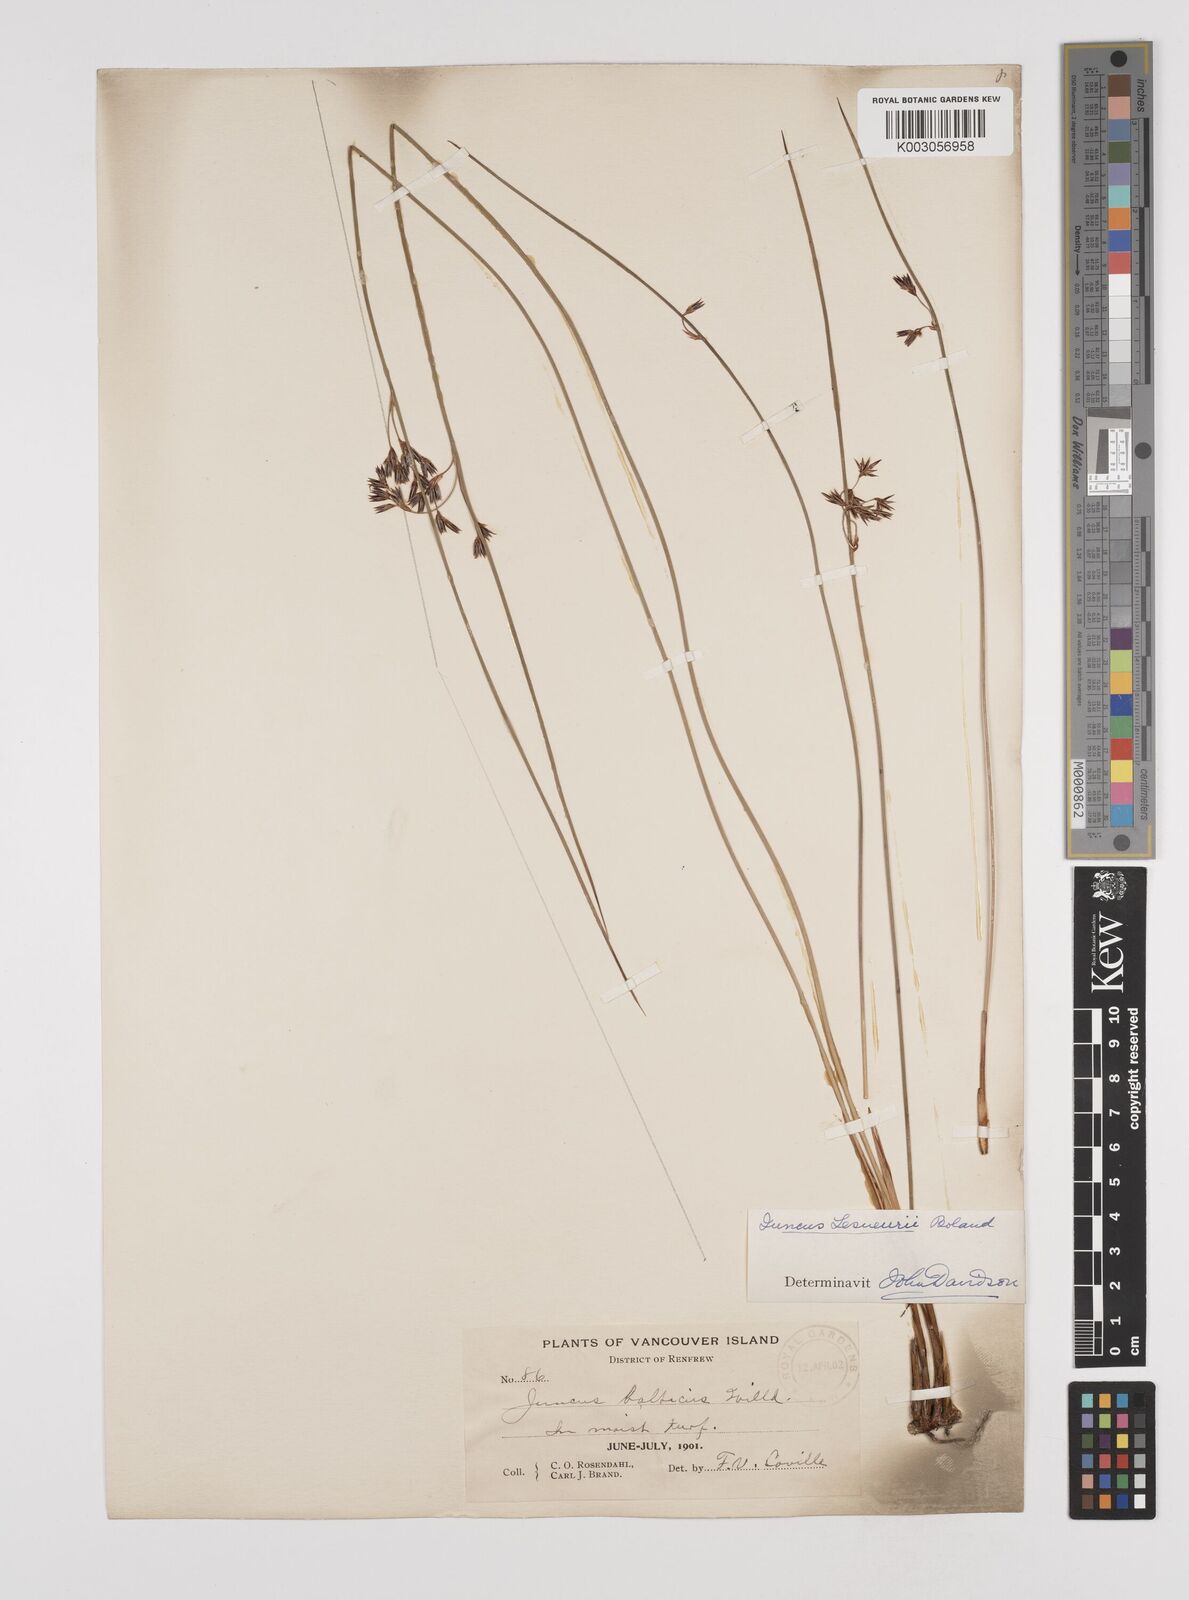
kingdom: Plantae
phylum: Tracheophyta
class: Liliopsida
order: Poales
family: Juncaceae
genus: Juncus
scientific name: Juncus lesueurii
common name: Lesueur's rush
